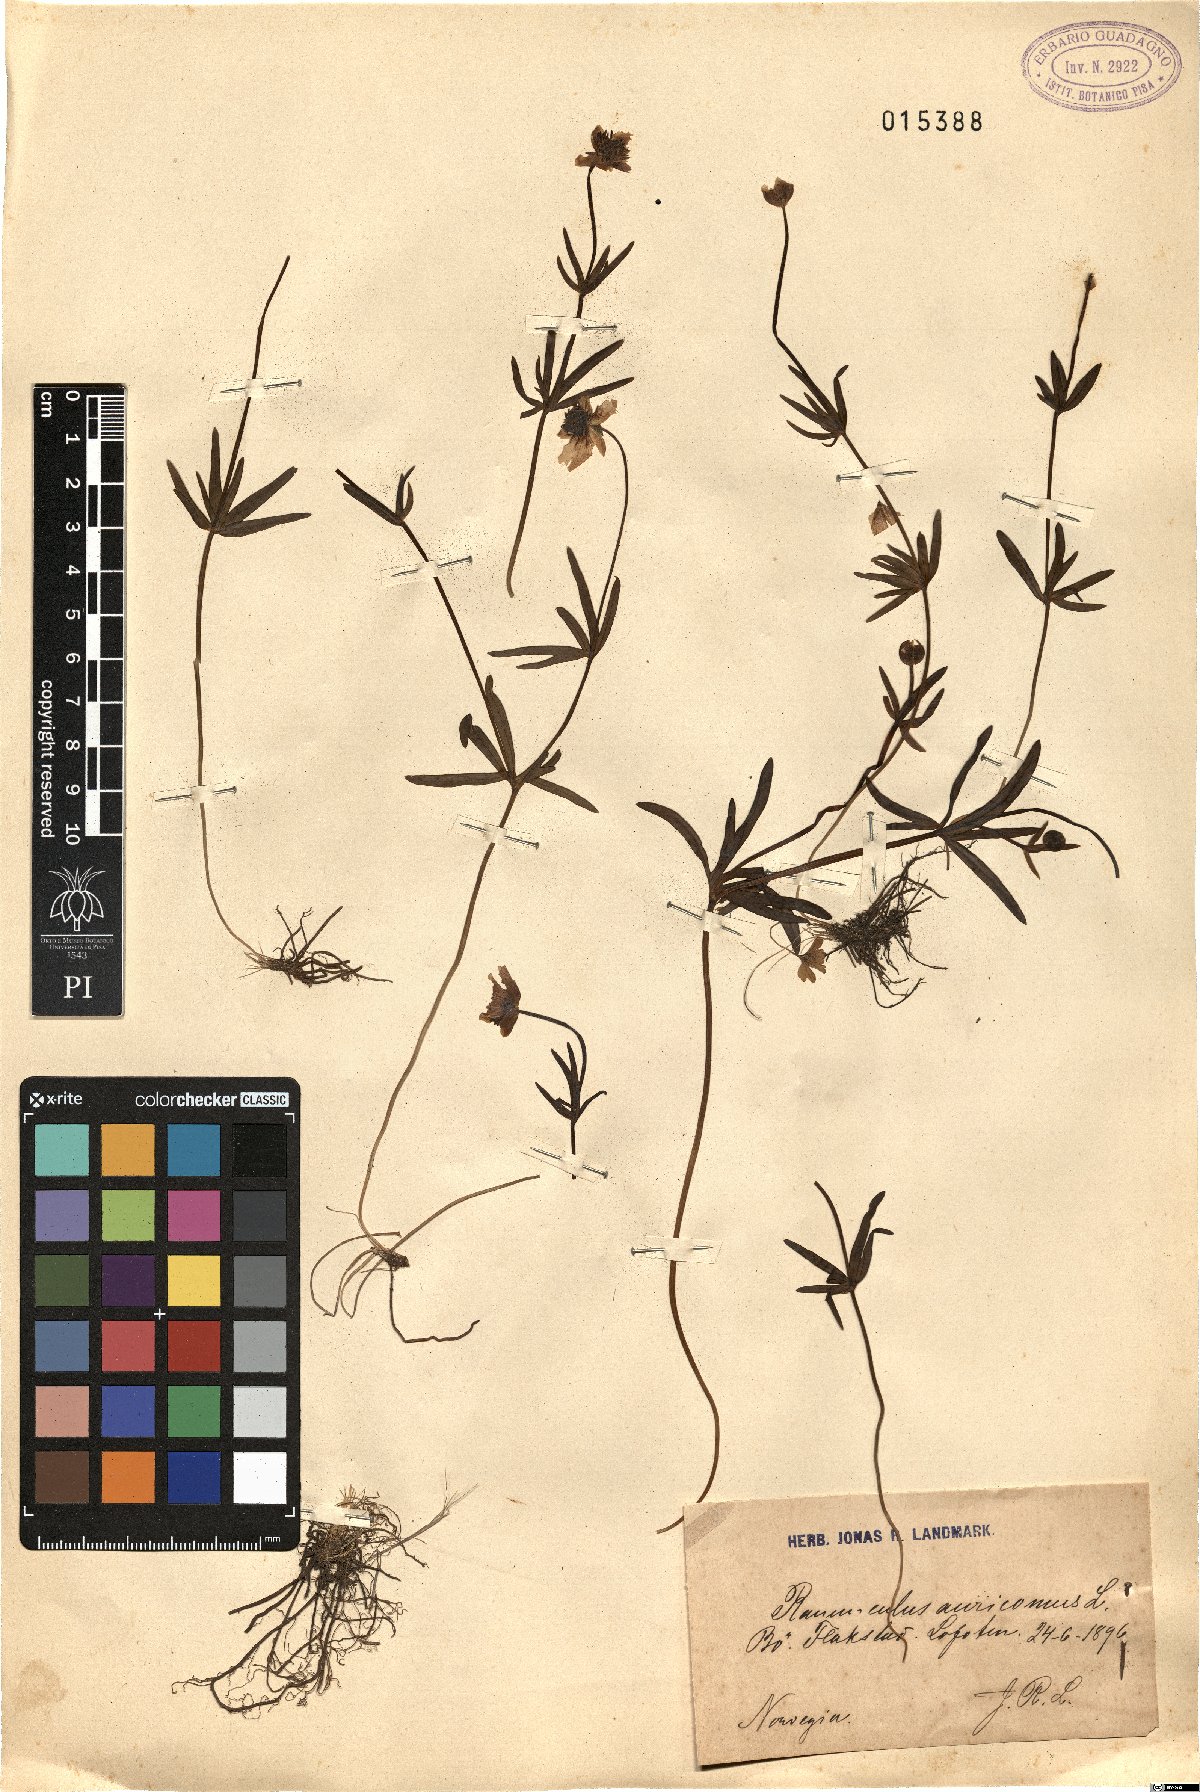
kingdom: Plantae
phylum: Tracheophyta
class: Magnoliopsida
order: Ranunculales
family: Ranunculaceae
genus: Ranunculus
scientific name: Ranunculus auricomus
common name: Goldilocks buttercup
